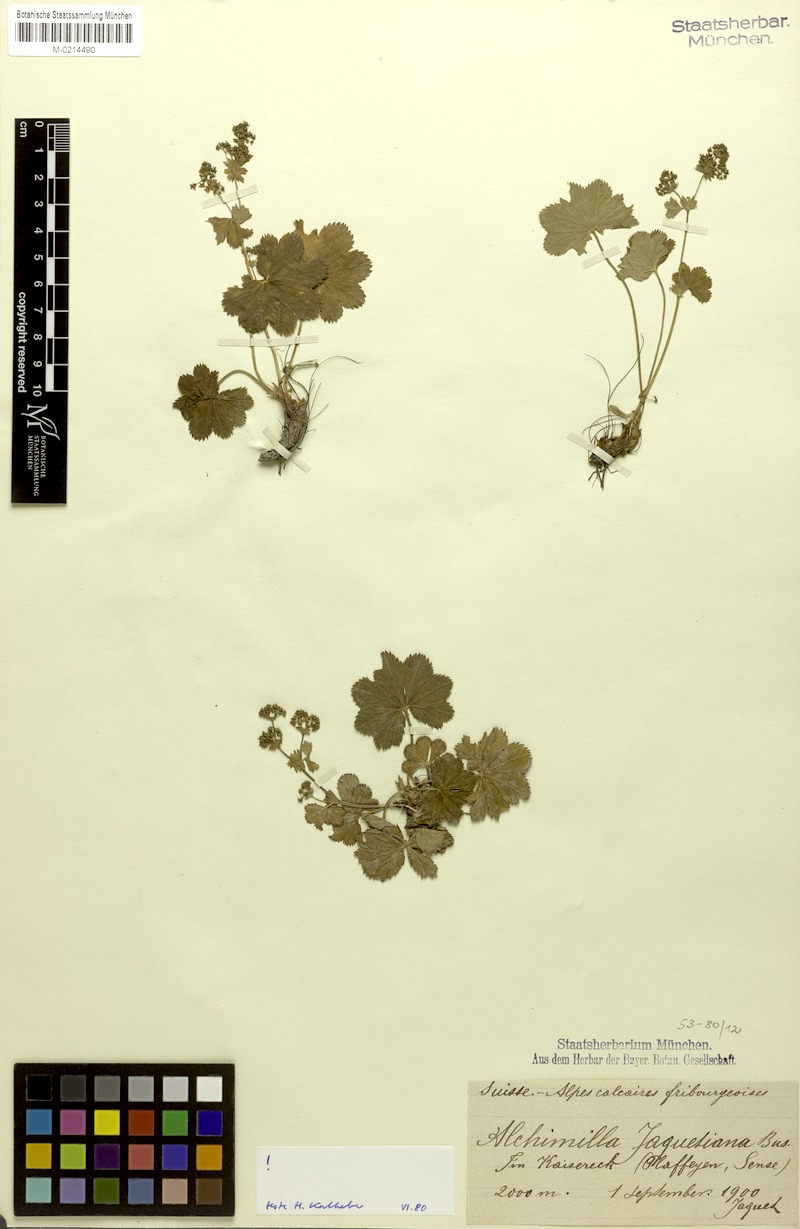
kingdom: Plantae
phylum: Tracheophyta
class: Magnoliopsida
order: Rosales
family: Rosaceae
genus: Alchemilla
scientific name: Alchemilla jaquetiana
